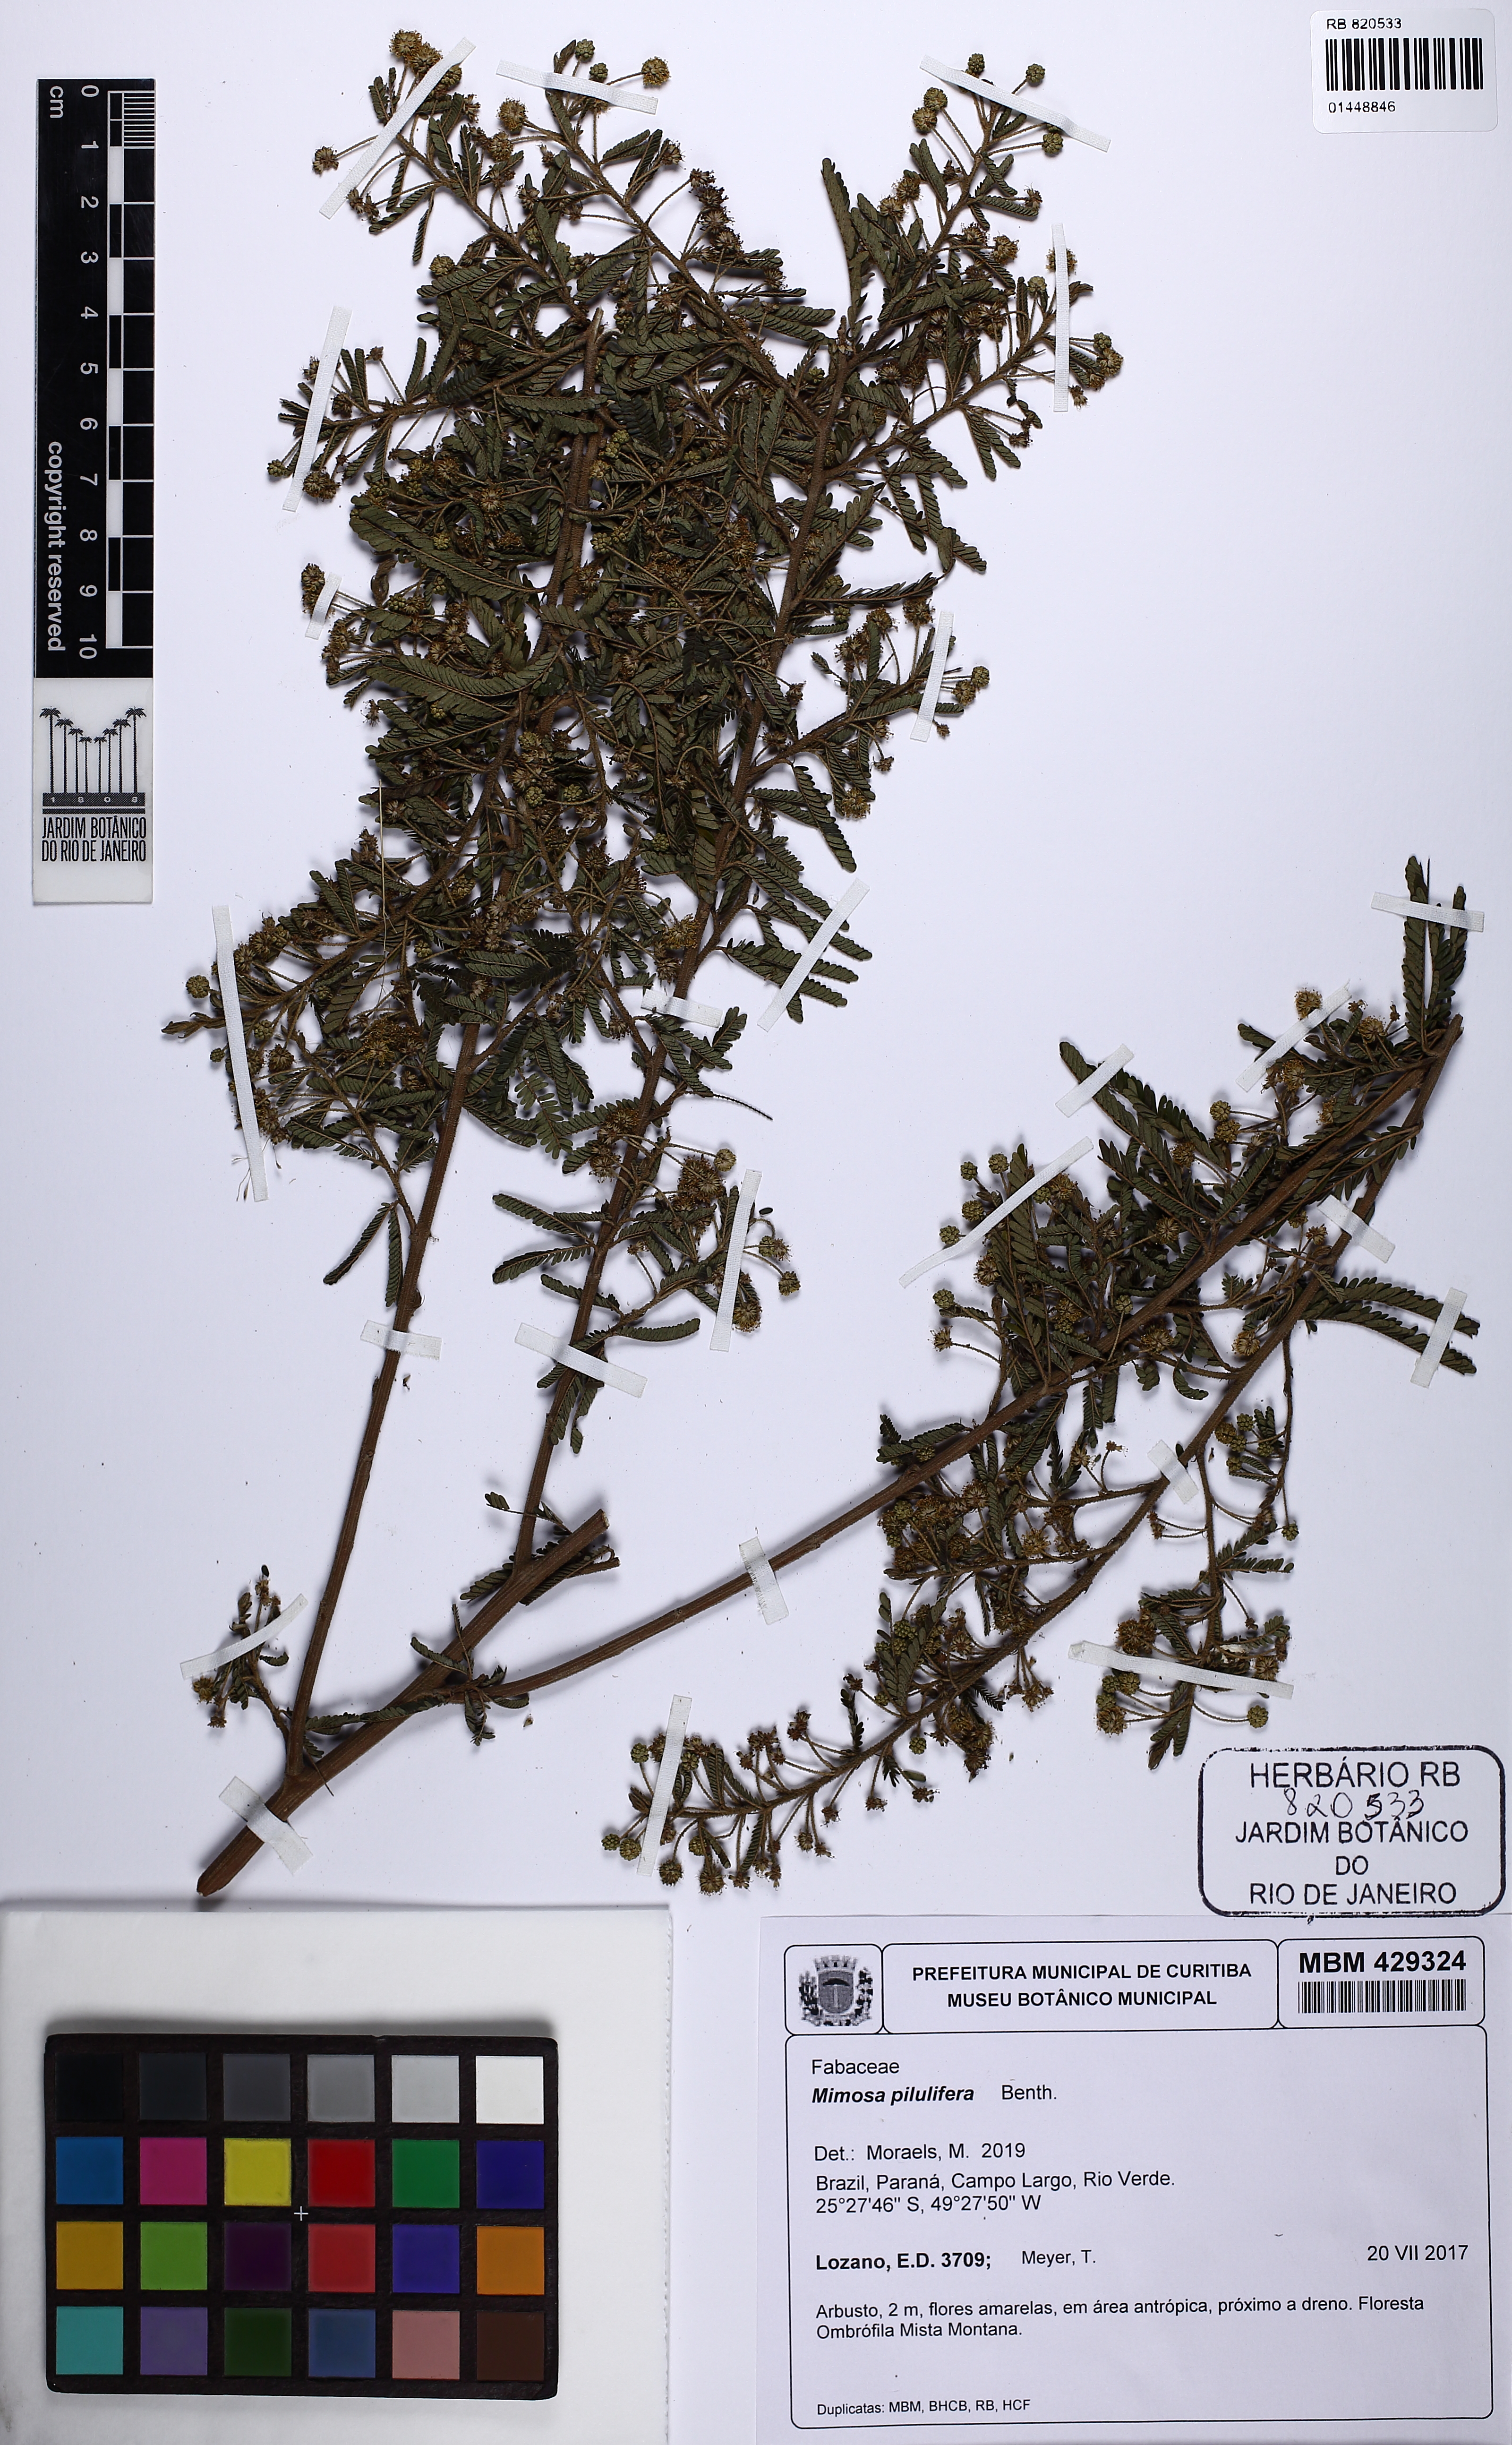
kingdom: Plantae
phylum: Tracheophyta
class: Magnoliopsida
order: Fabales
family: Fabaceae
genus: Mimosa
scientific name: Mimosa pilulifera
